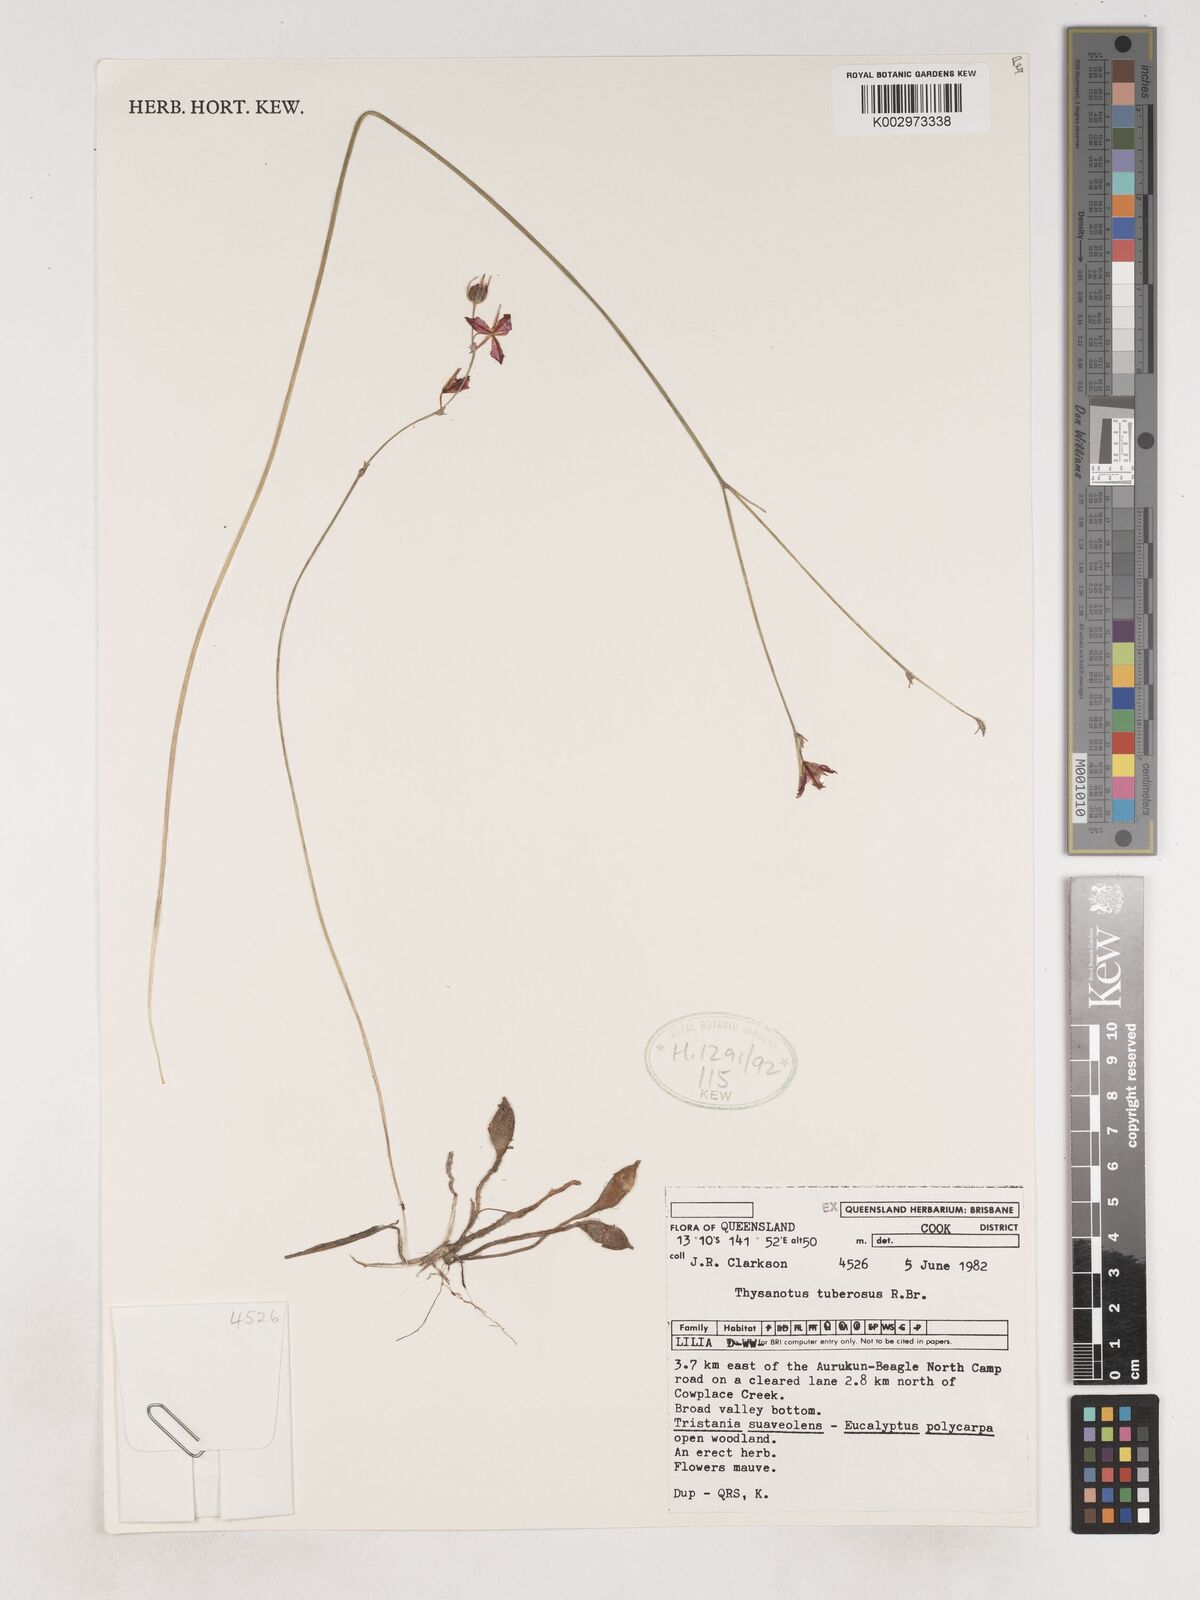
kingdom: Plantae
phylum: Tracheophyta
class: Liliopsida
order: Asparagales
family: Asparagaceae
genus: Thysanotus
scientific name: Thysanotus tuberosus
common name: Common fringed-lily
